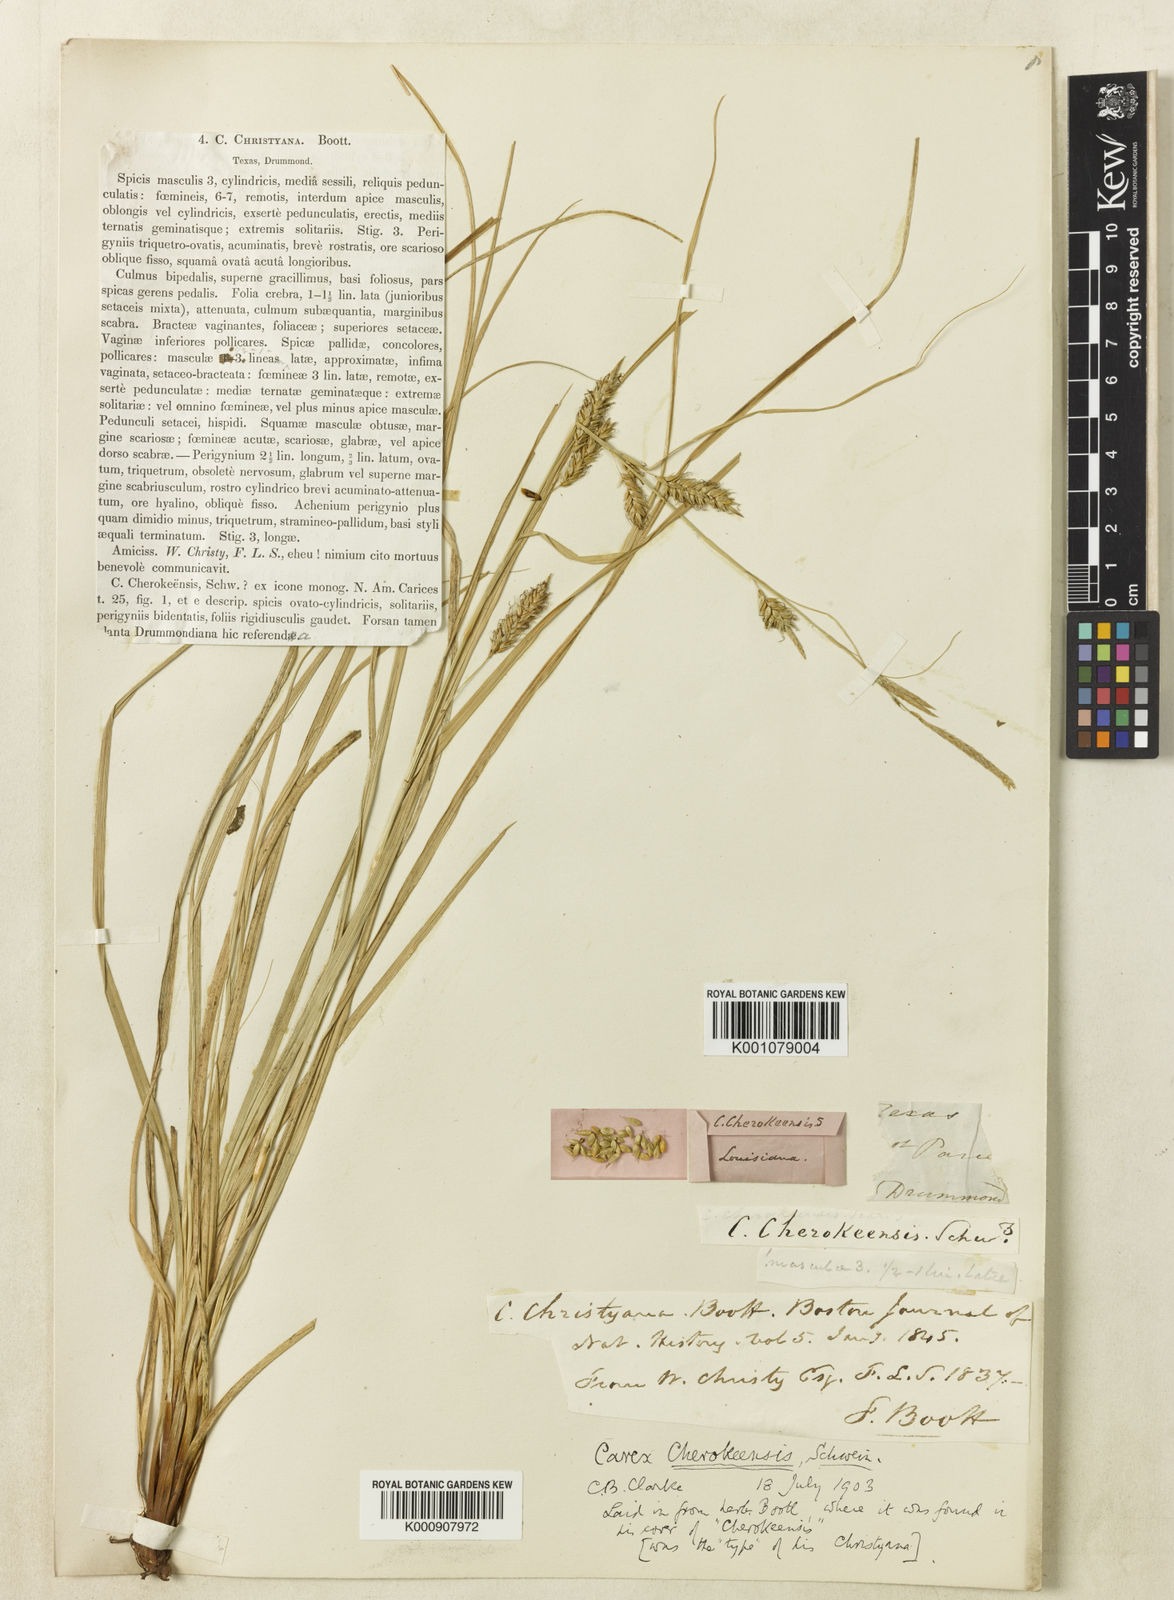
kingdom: Plantae
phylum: Tracheophyta
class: Liliopsida
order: Poales
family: Cyperaceae
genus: Carex
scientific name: Carex cherokeensis
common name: Cherokee sedge
